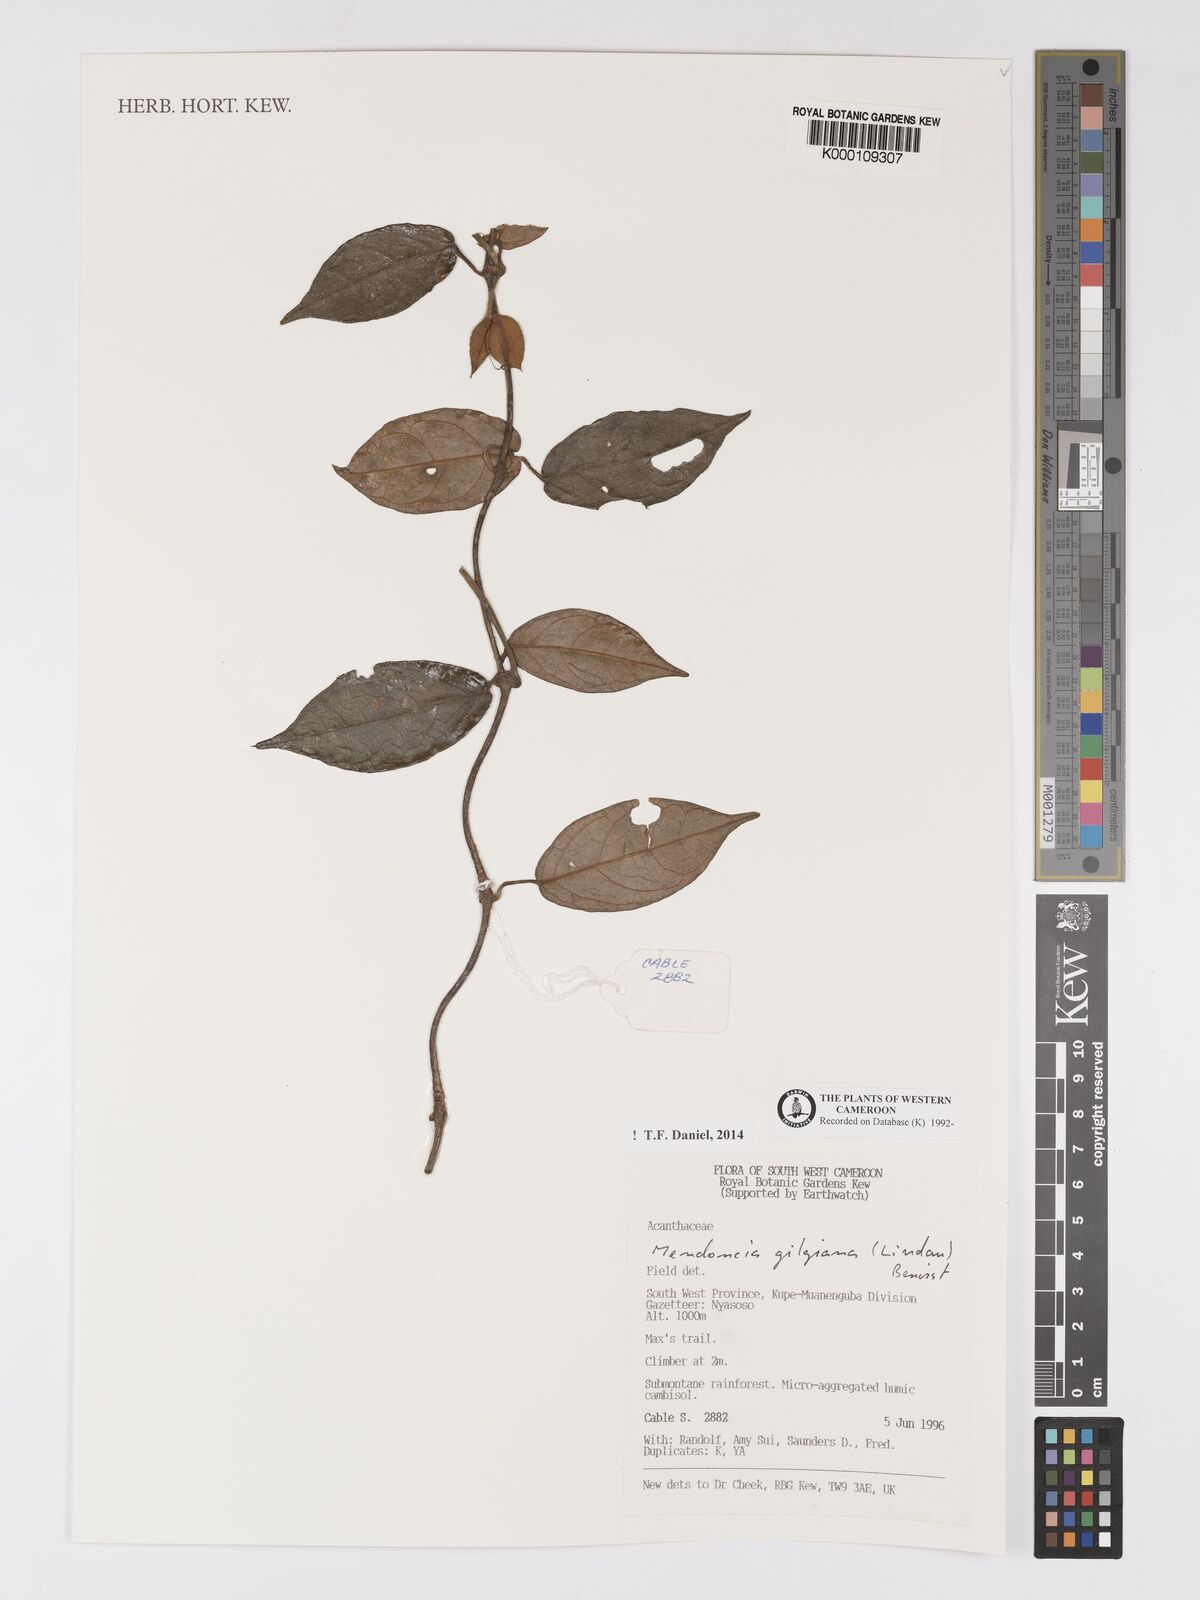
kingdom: Plantae
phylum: Tracheophyta
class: Magnoliopsida
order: Lamiales
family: Acanthaceae
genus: Mendoncia
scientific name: Mendoncia gilgiana
